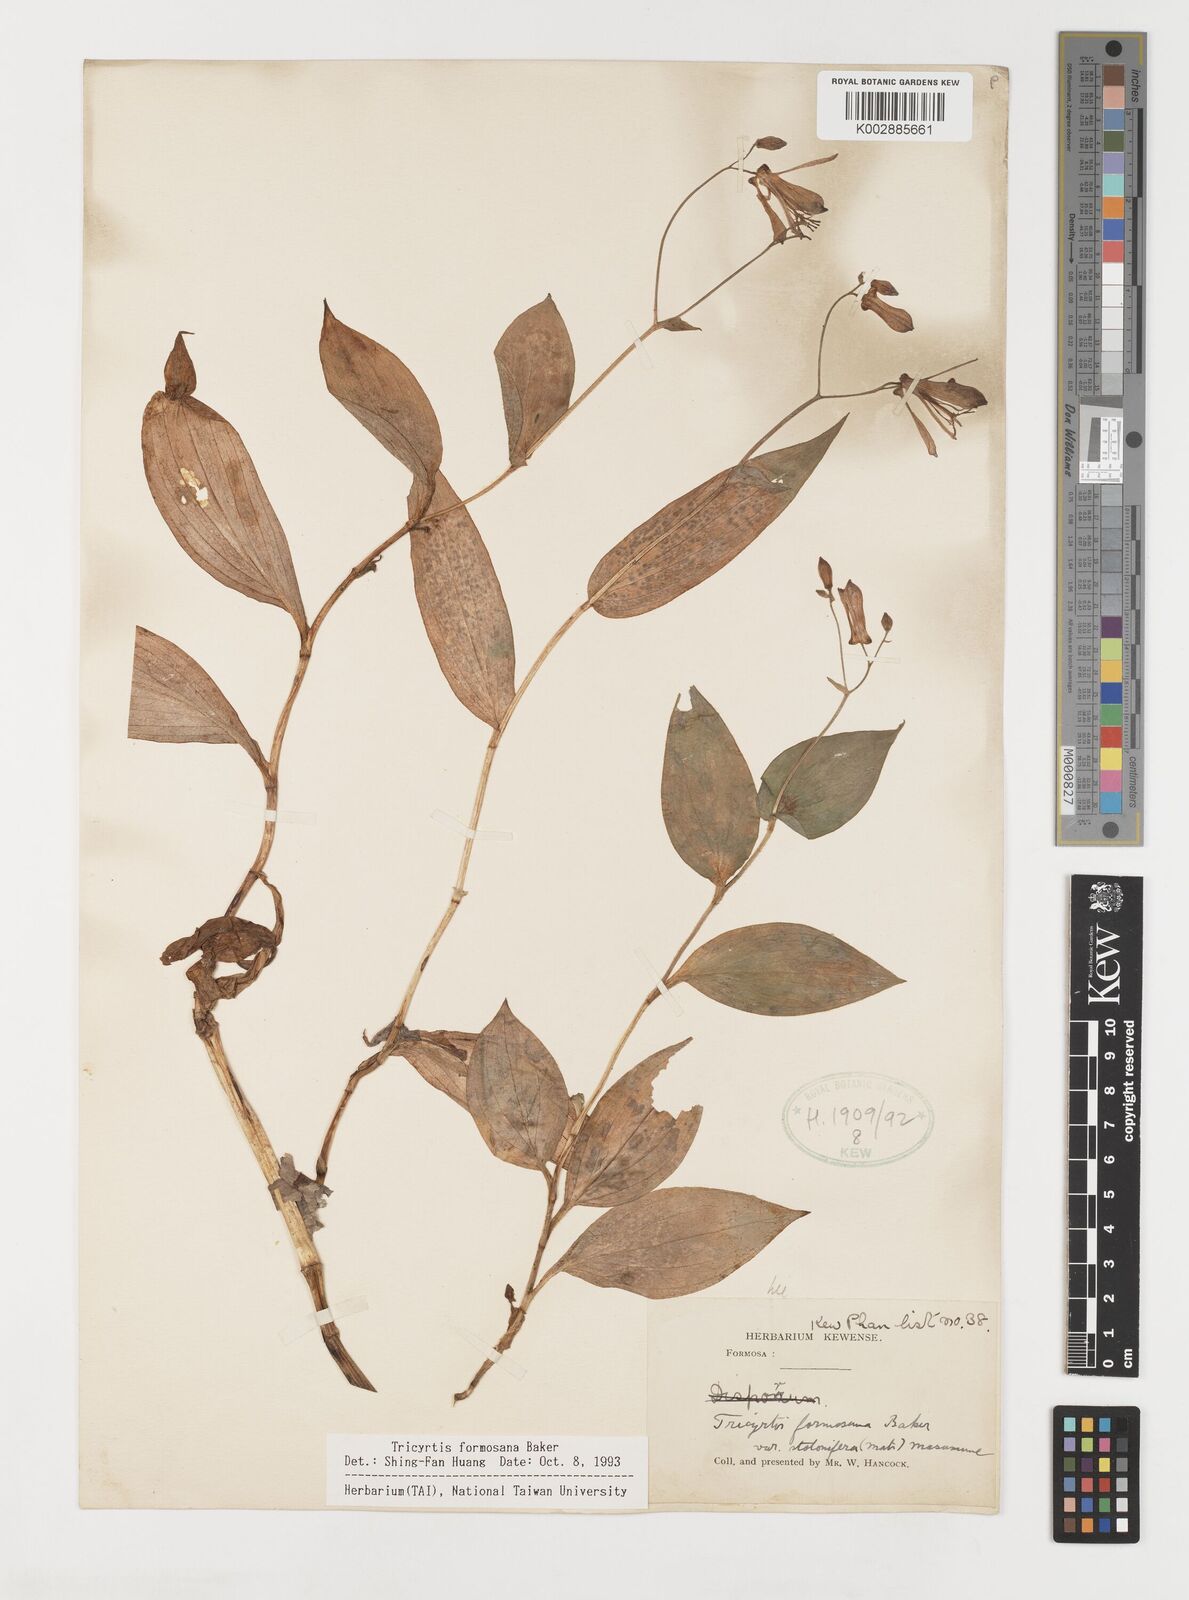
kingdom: Plantae
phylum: Tracheophyta
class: Liliopsida
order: Liliales
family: Liliaceae
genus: Tricyrtis
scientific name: Tricyrtis formosana
